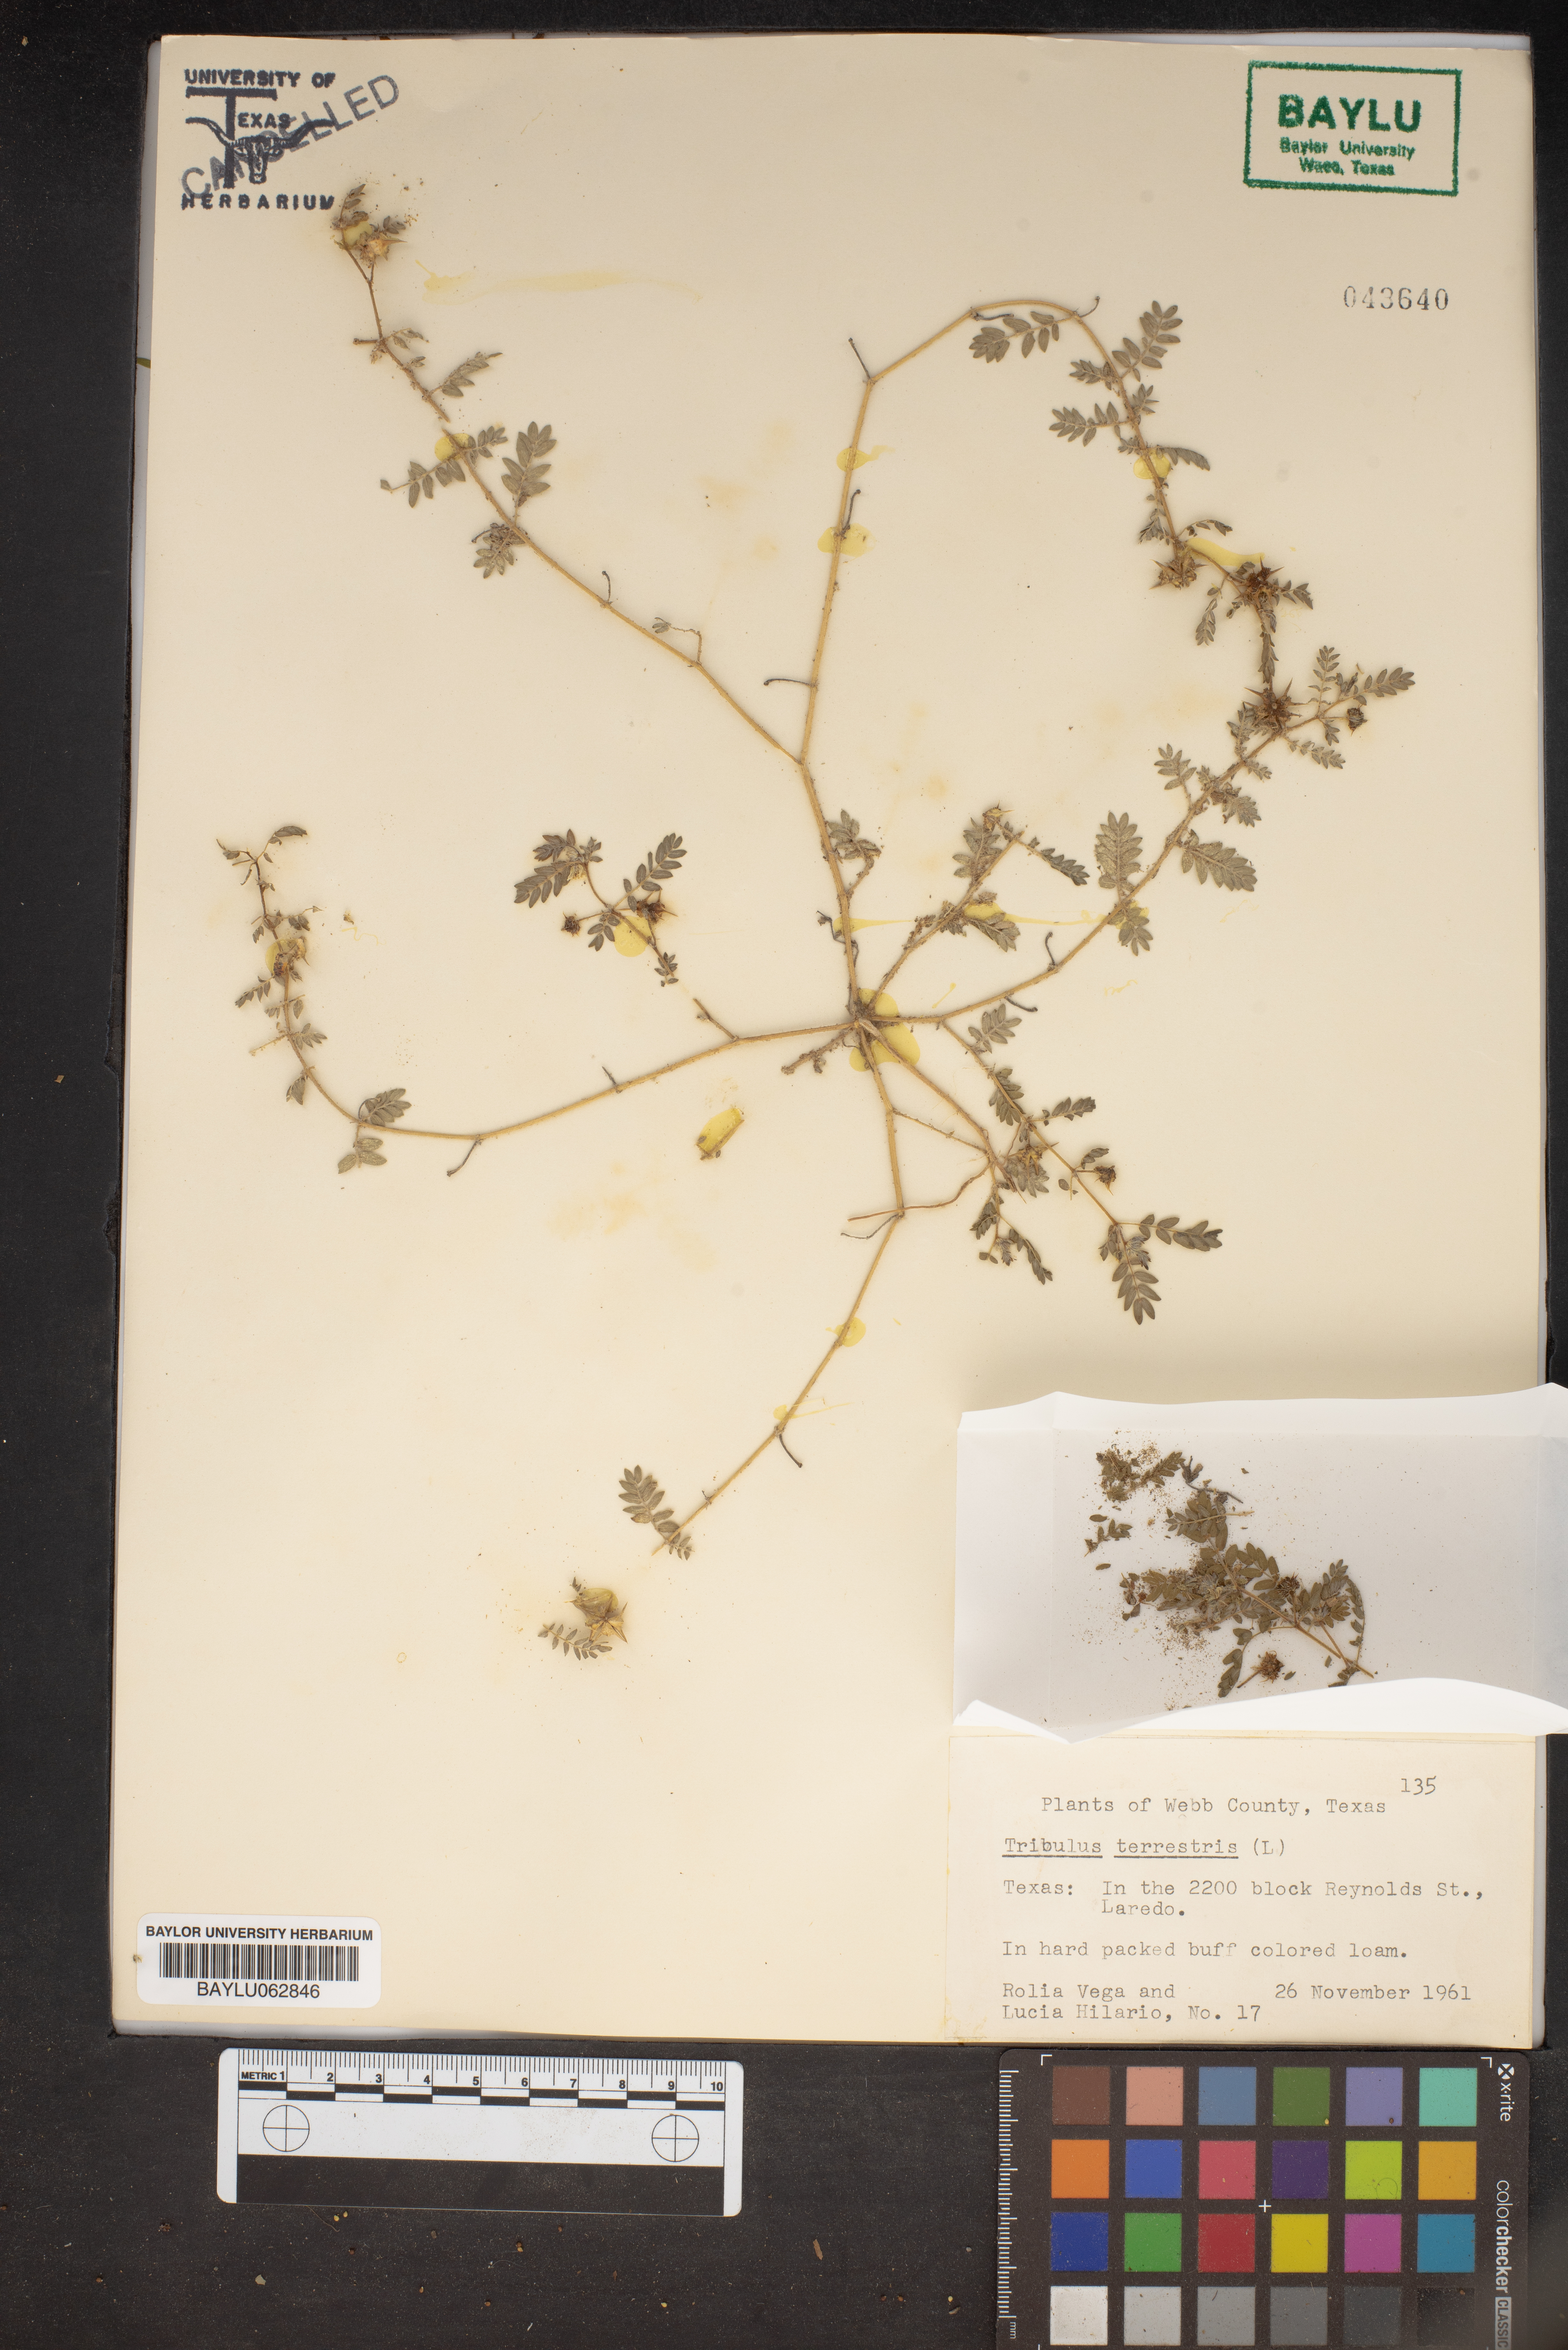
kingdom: Plantae
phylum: Tracheophyta
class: Magnoliopsida
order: Zygophyllales
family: Zygophyllaceae
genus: Tribulus
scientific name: Tribulus terrestris
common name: Puncturevine
